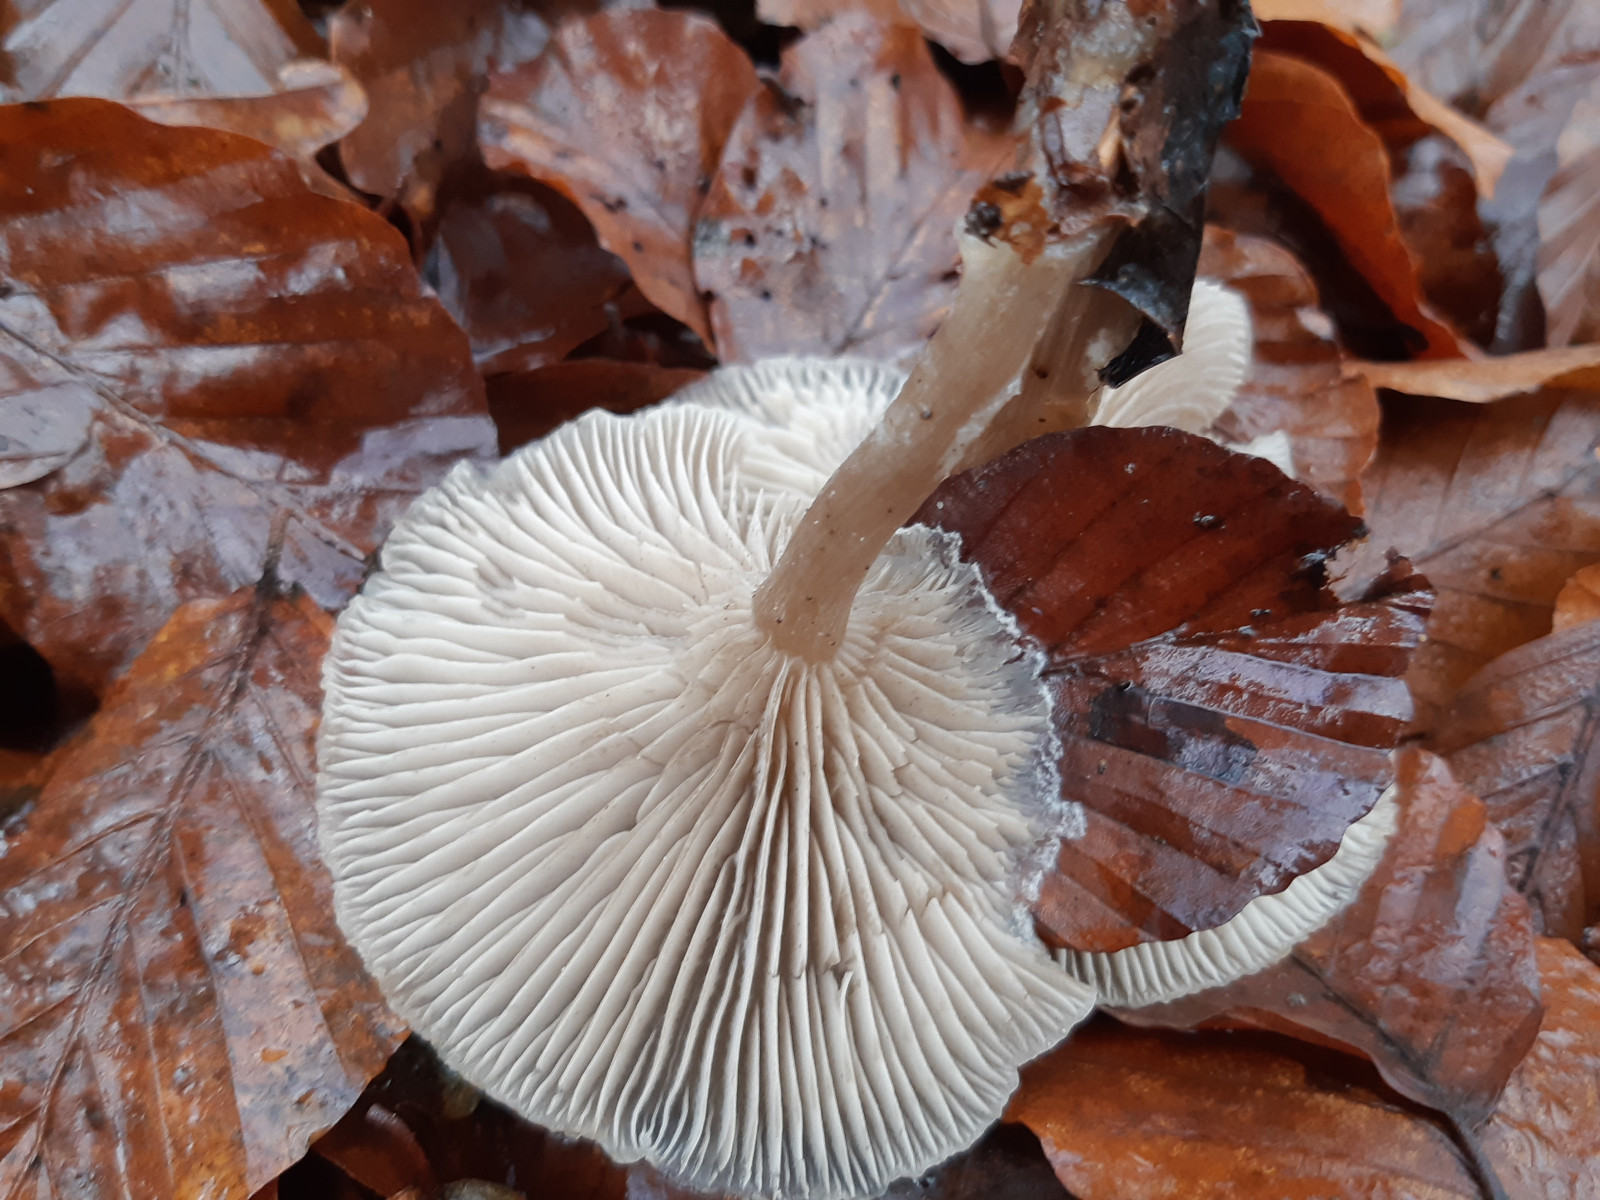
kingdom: Fungi
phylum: Basidiomycota
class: Agaricomycetes
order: Agaricales
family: Tricholomataceae
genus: Clitocybe
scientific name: Clitocybe fragrans
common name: vellugtende tragthat
